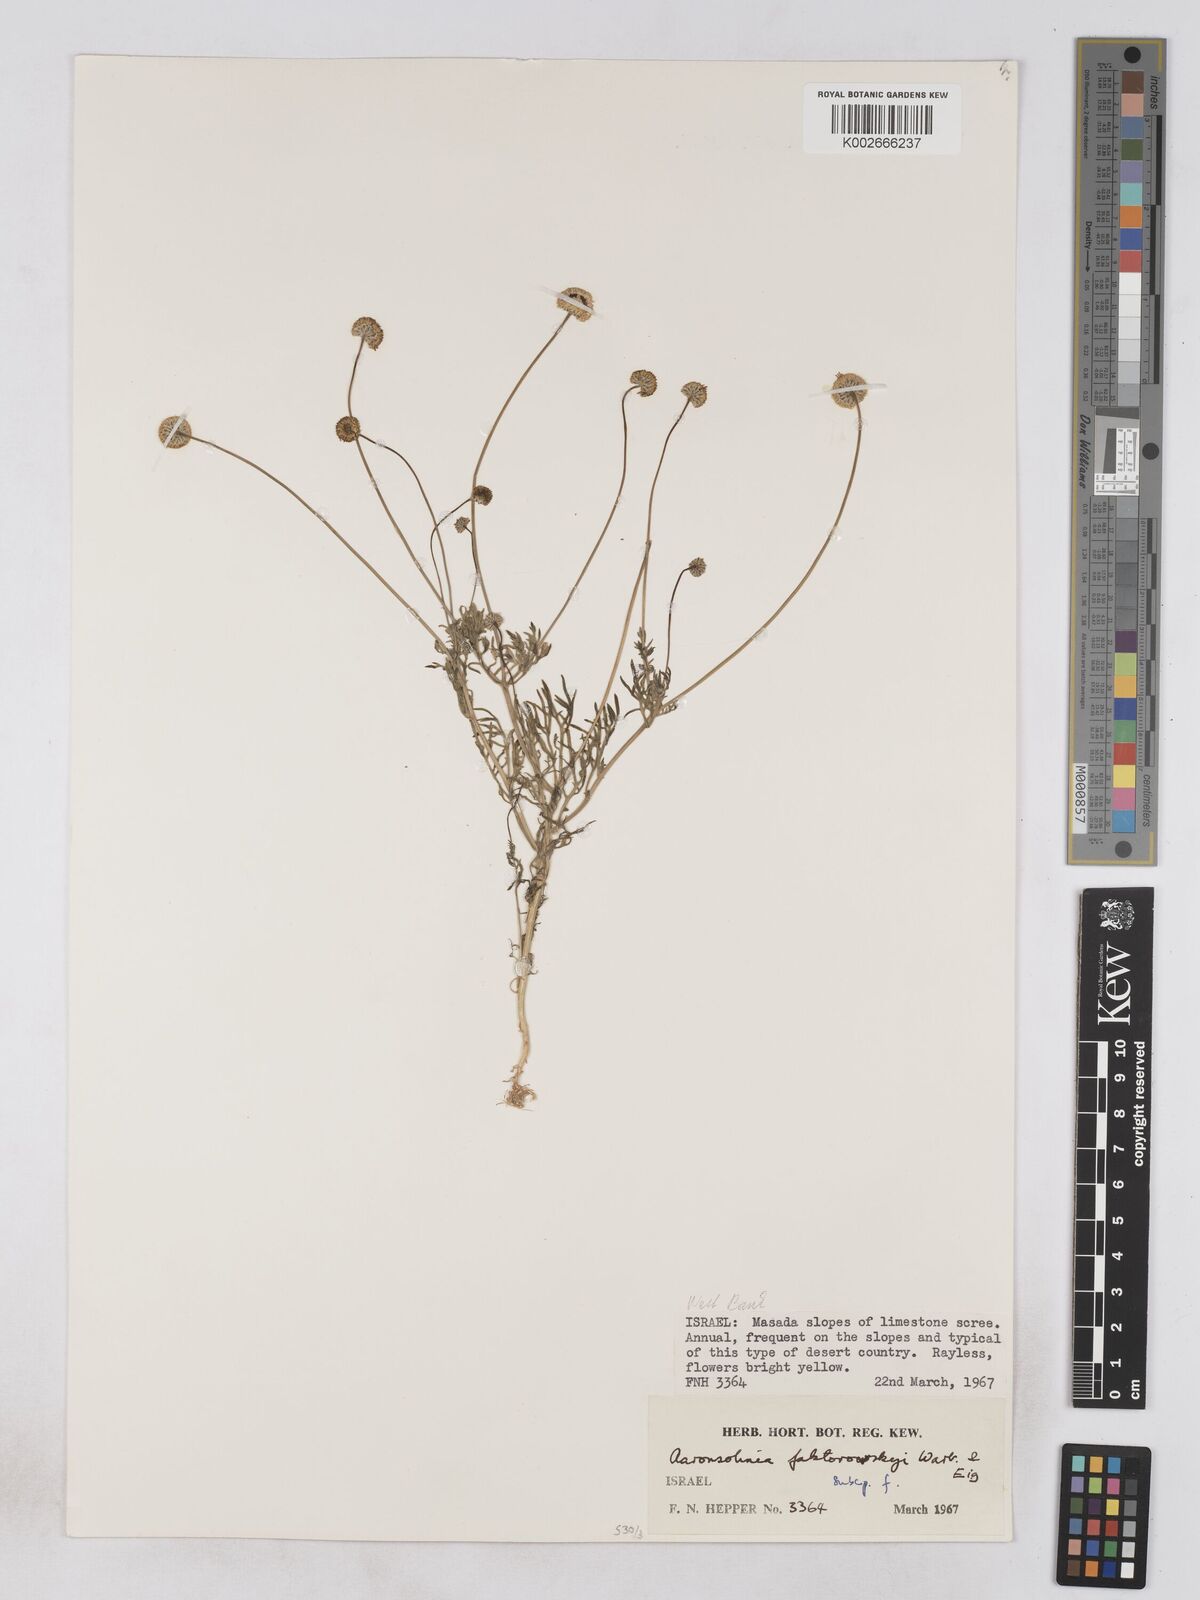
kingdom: Plantae
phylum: Tracheophyta
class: Magnoliopsida
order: Asterales
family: Asteraceae
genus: Otoglyphis
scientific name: Otoglyphis factorovskyi
